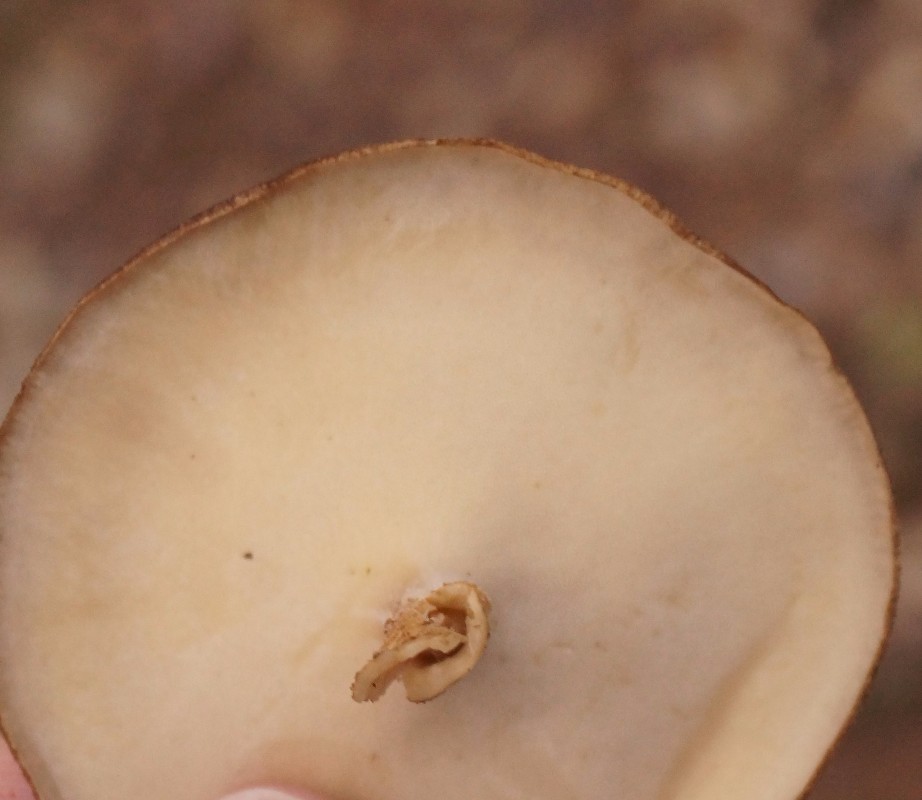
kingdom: Fungi
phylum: Basidiomycota
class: Agaricomycetes
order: Polyporales
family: Polyporaceae
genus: Lentinus
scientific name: Lentinus substrictus
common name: forårs-stilkporesvamp
